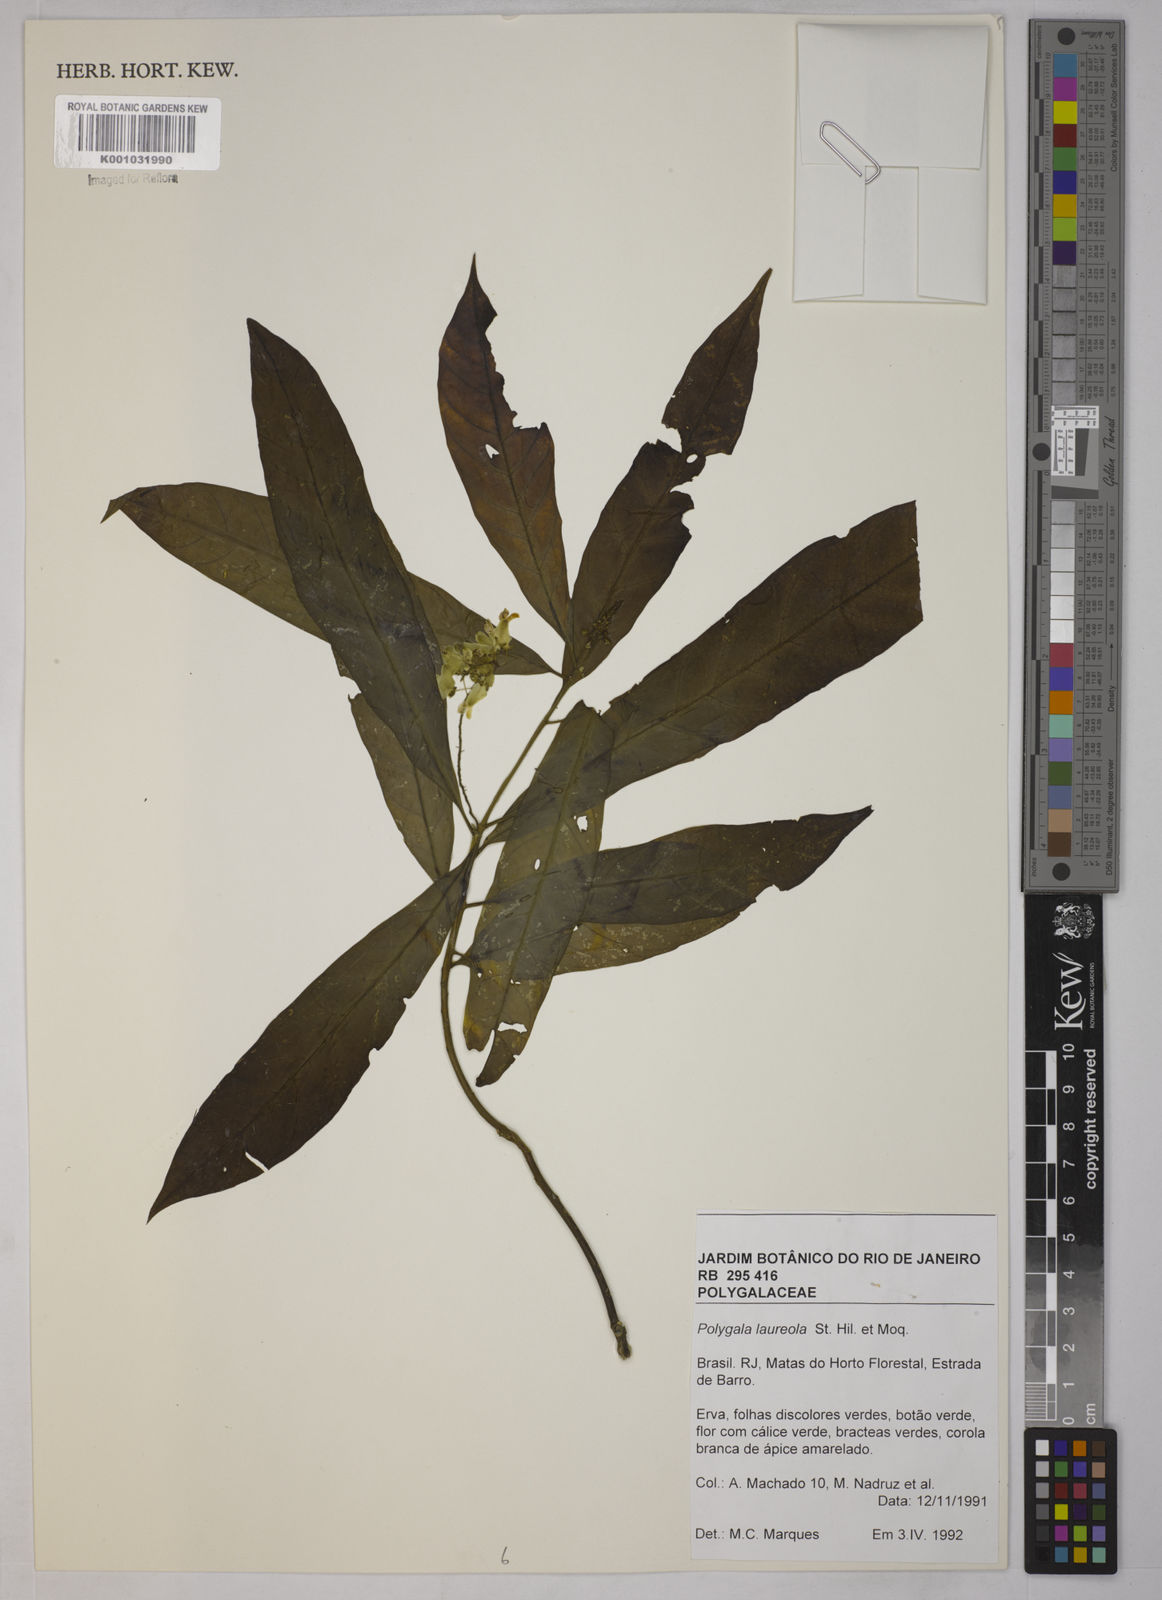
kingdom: Plantae
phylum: Tracheophyta
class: Magnoliopsida
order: Fabales
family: Polygalaceae
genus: Caamembeca
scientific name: Caamembeca salicifolia
